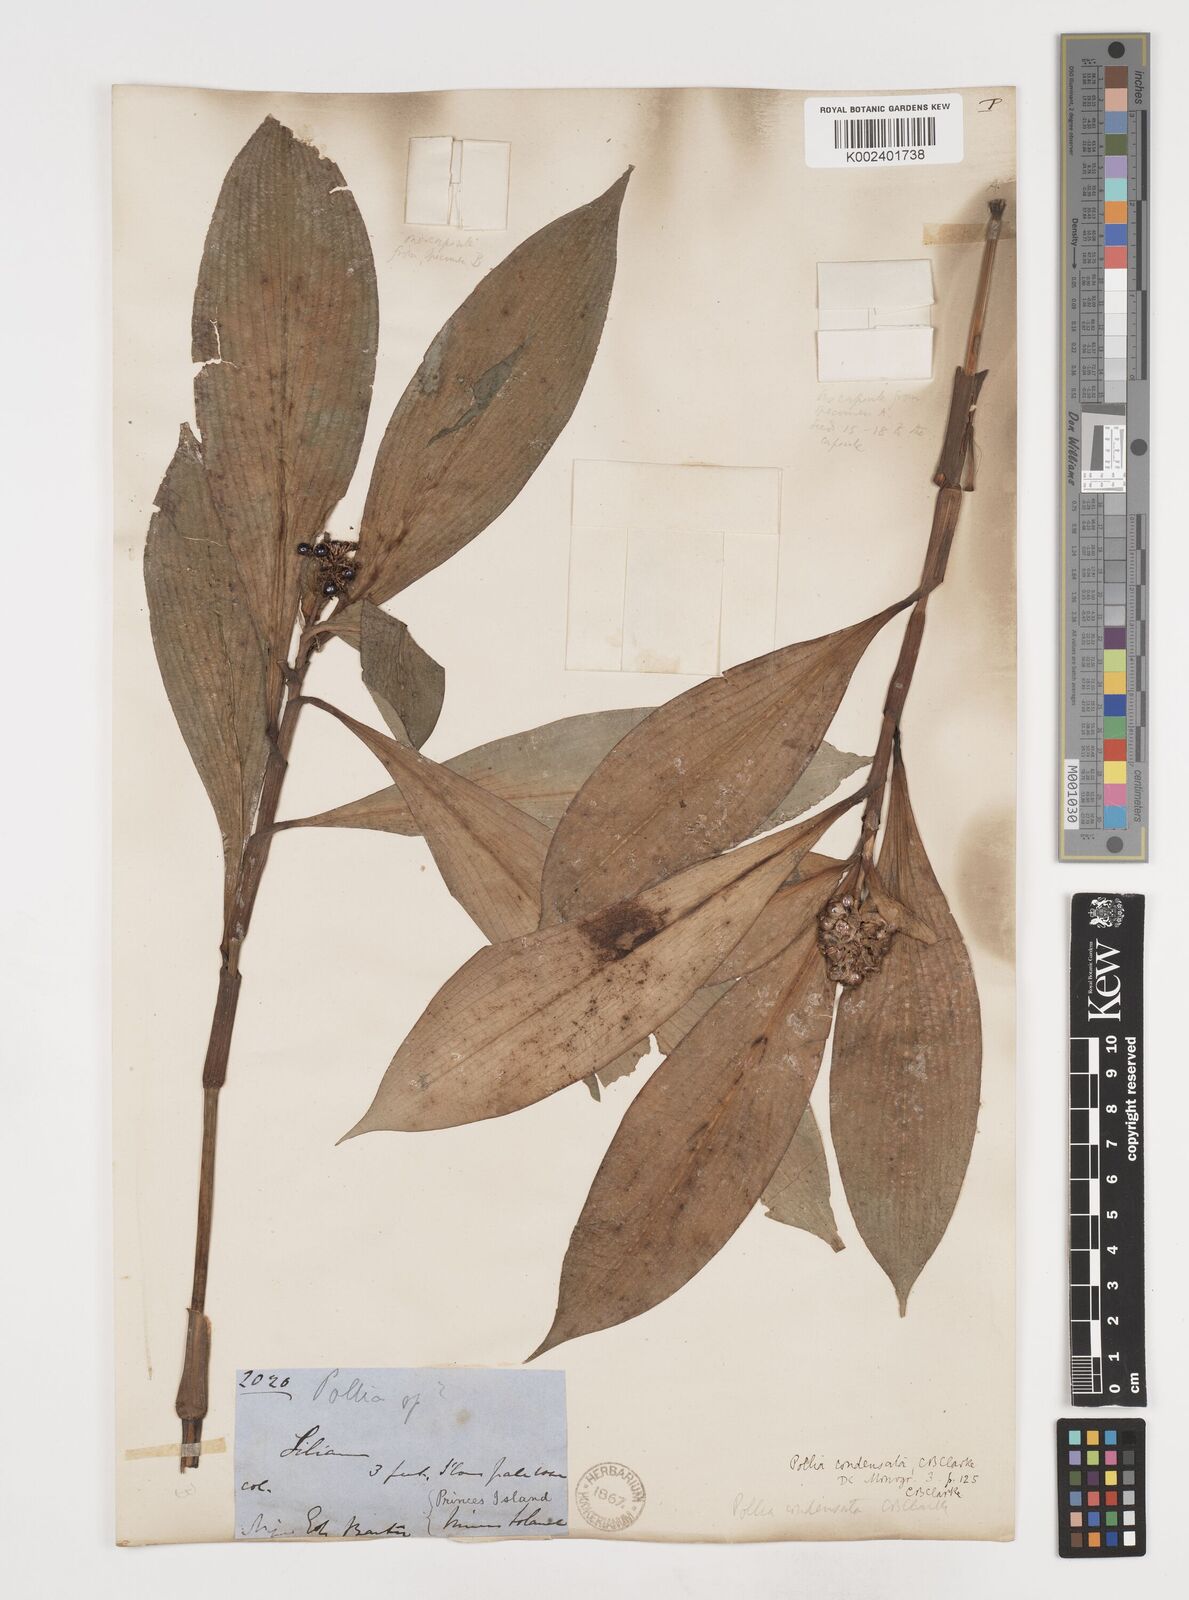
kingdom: Plantae
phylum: Tracheophyta
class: Liliopsida
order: Commelinales
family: Commelinaceae
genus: Pollia
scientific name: Pollia condensata
